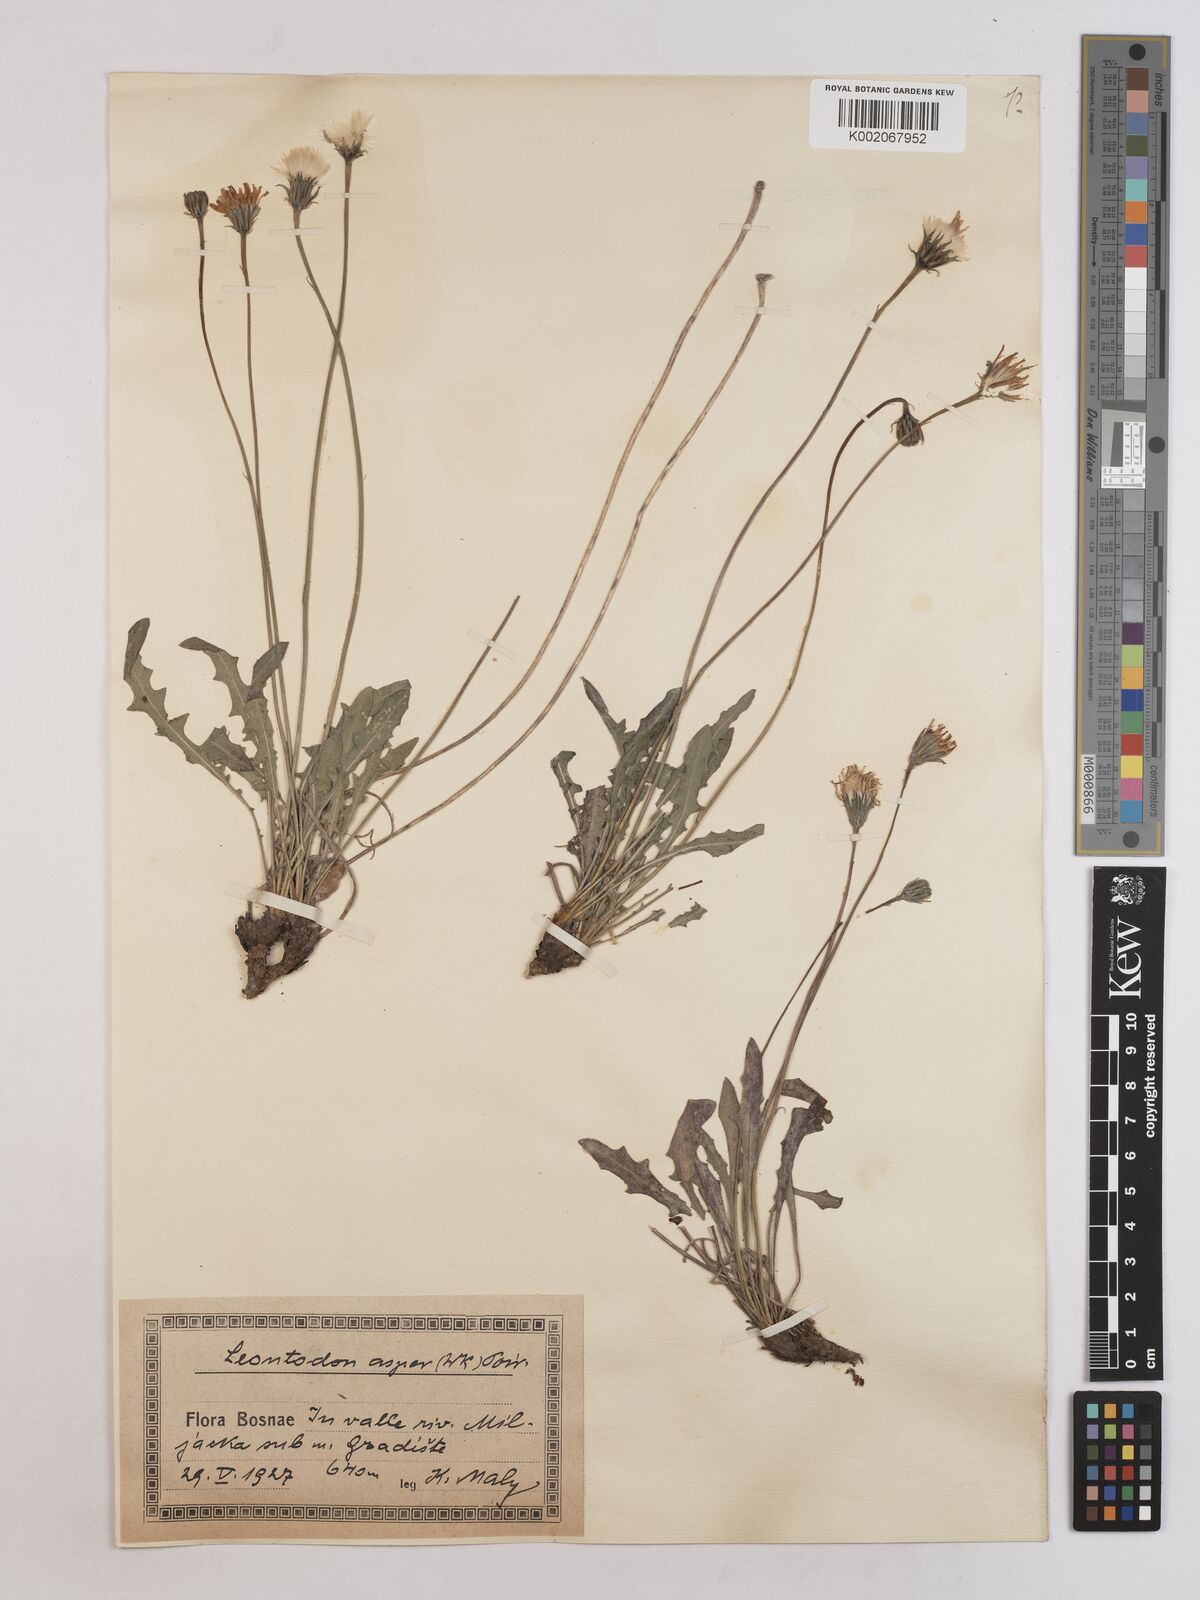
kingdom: Plantae
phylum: Tracheophyta
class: Magnoliopsida
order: Asterales
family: Asteraceae
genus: Leontodon
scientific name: Leontodon crispus
